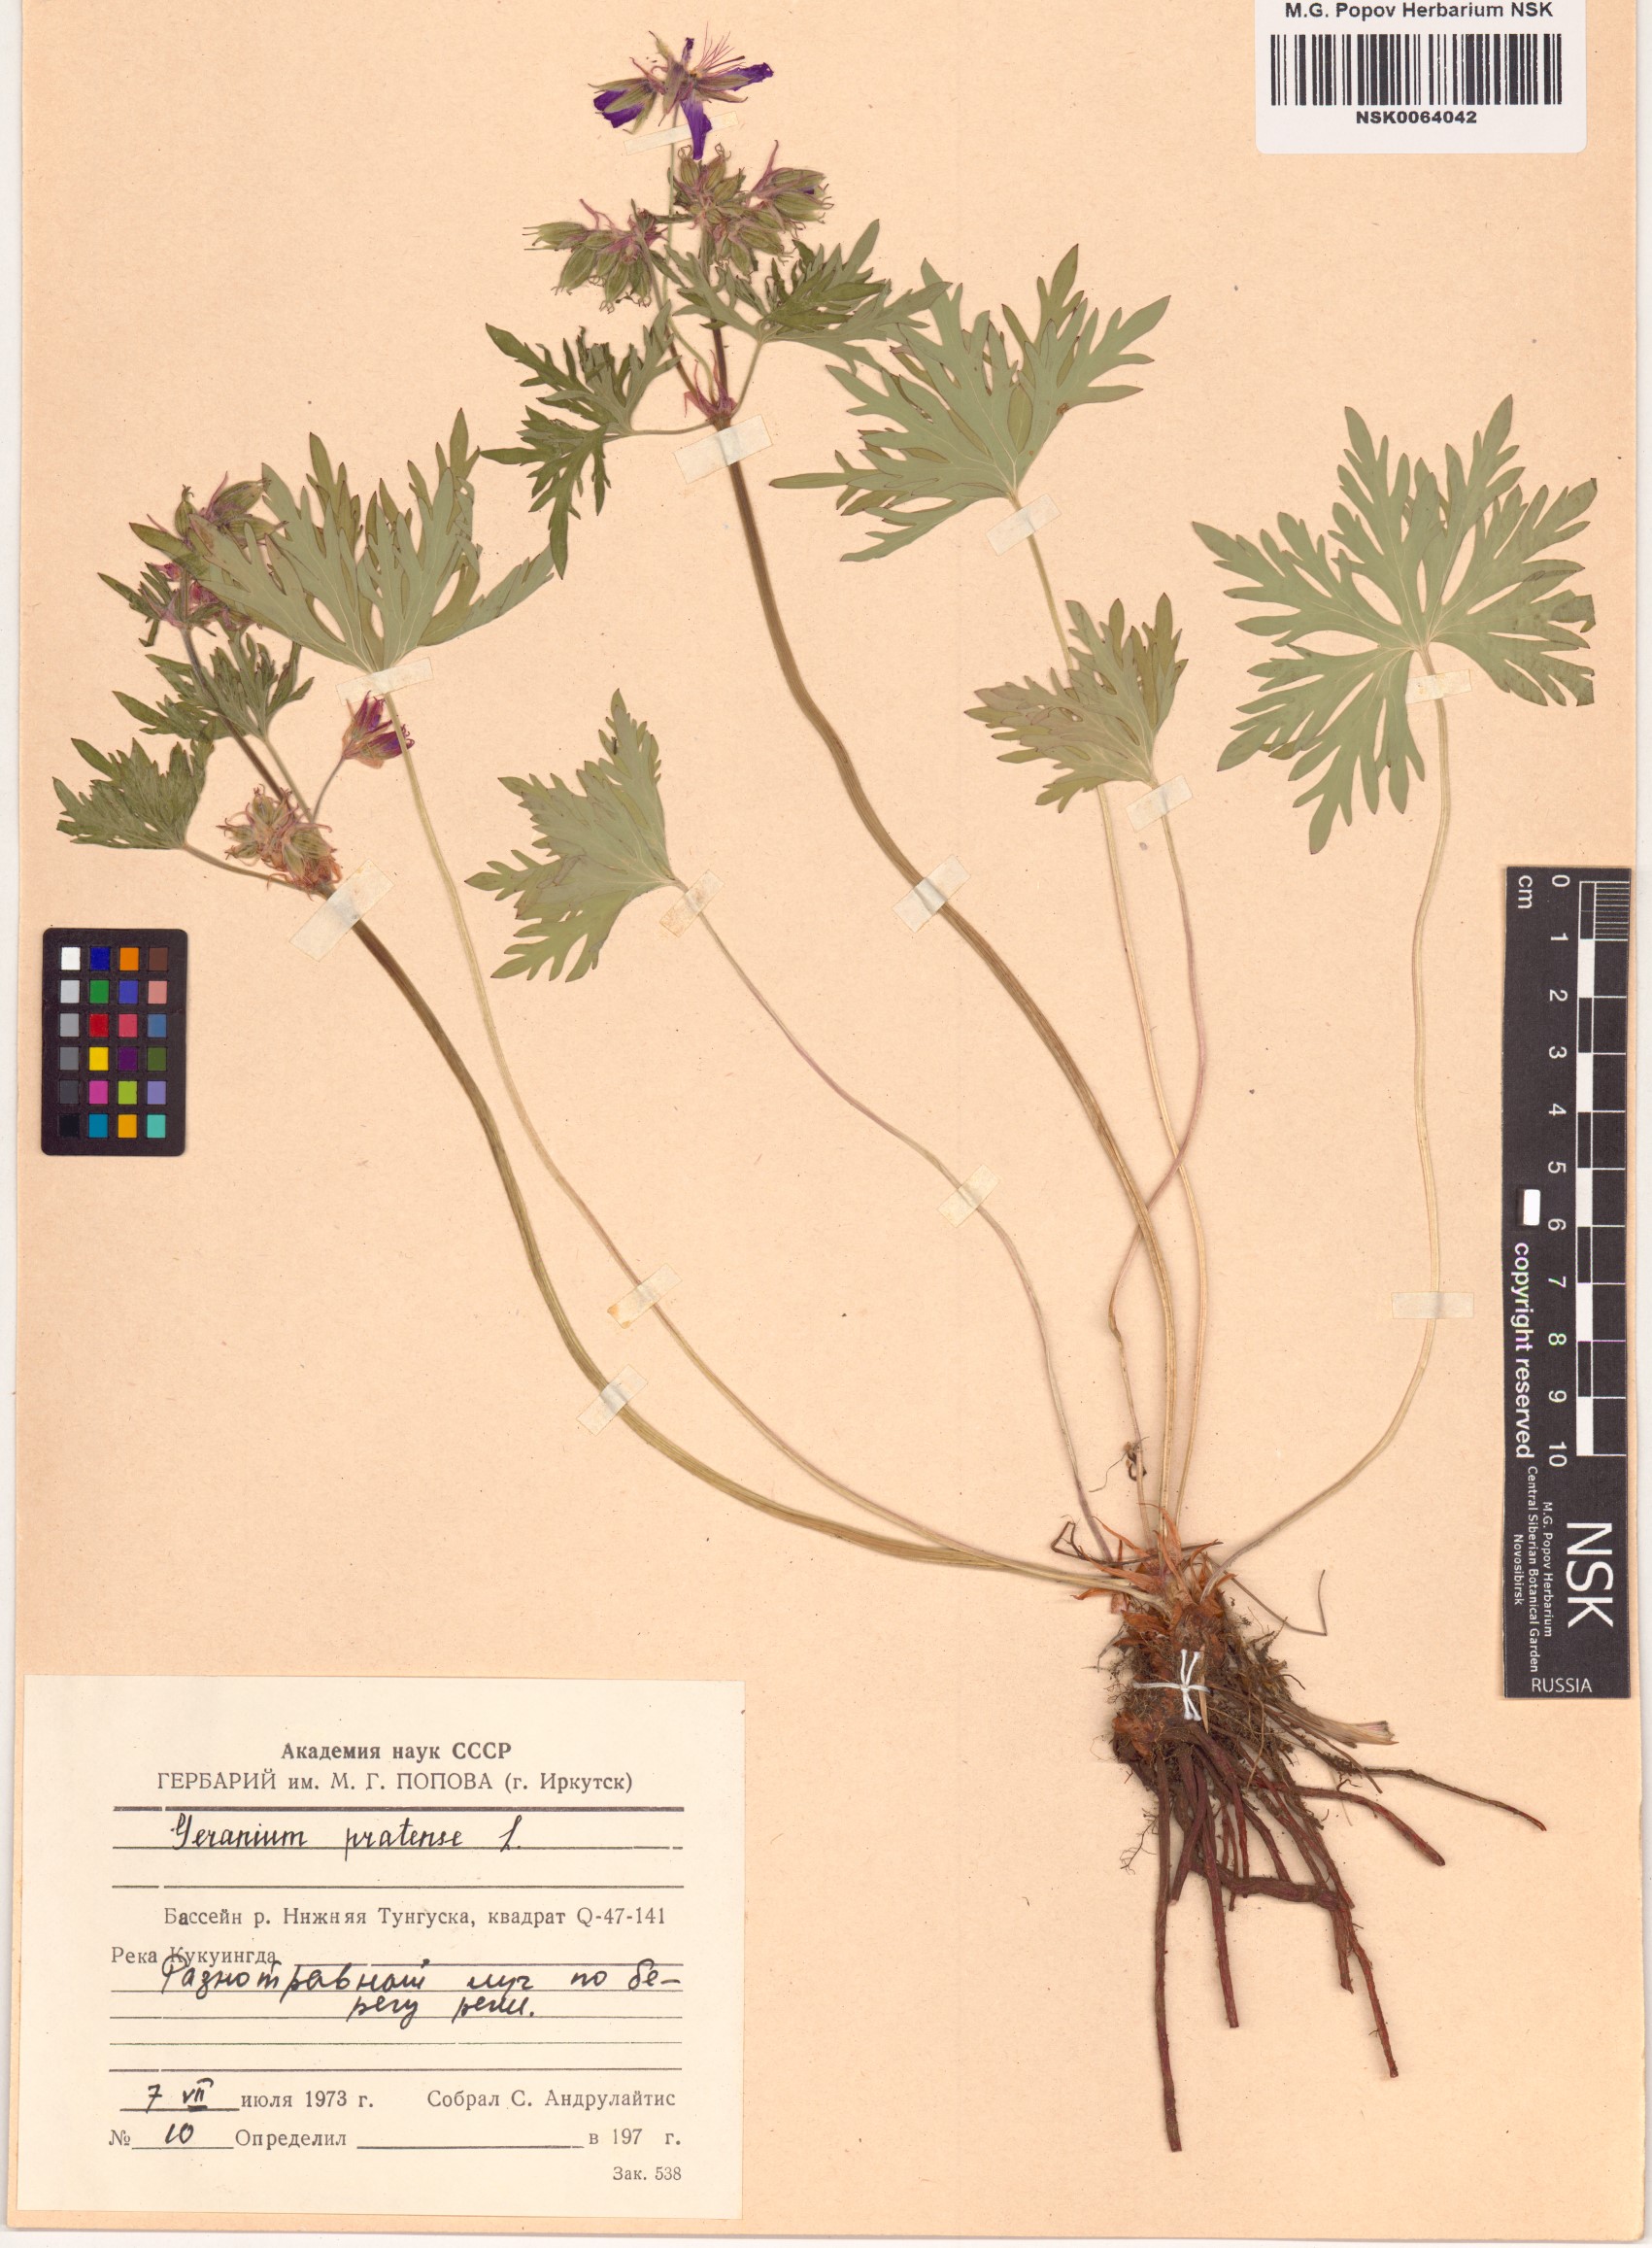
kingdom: Plantae
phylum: Tracheophyta
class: Magnoliopsida
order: Geraniales
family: Geraniaceae
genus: Geranium
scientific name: Geranium pratense
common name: Meadow crane's-bill
